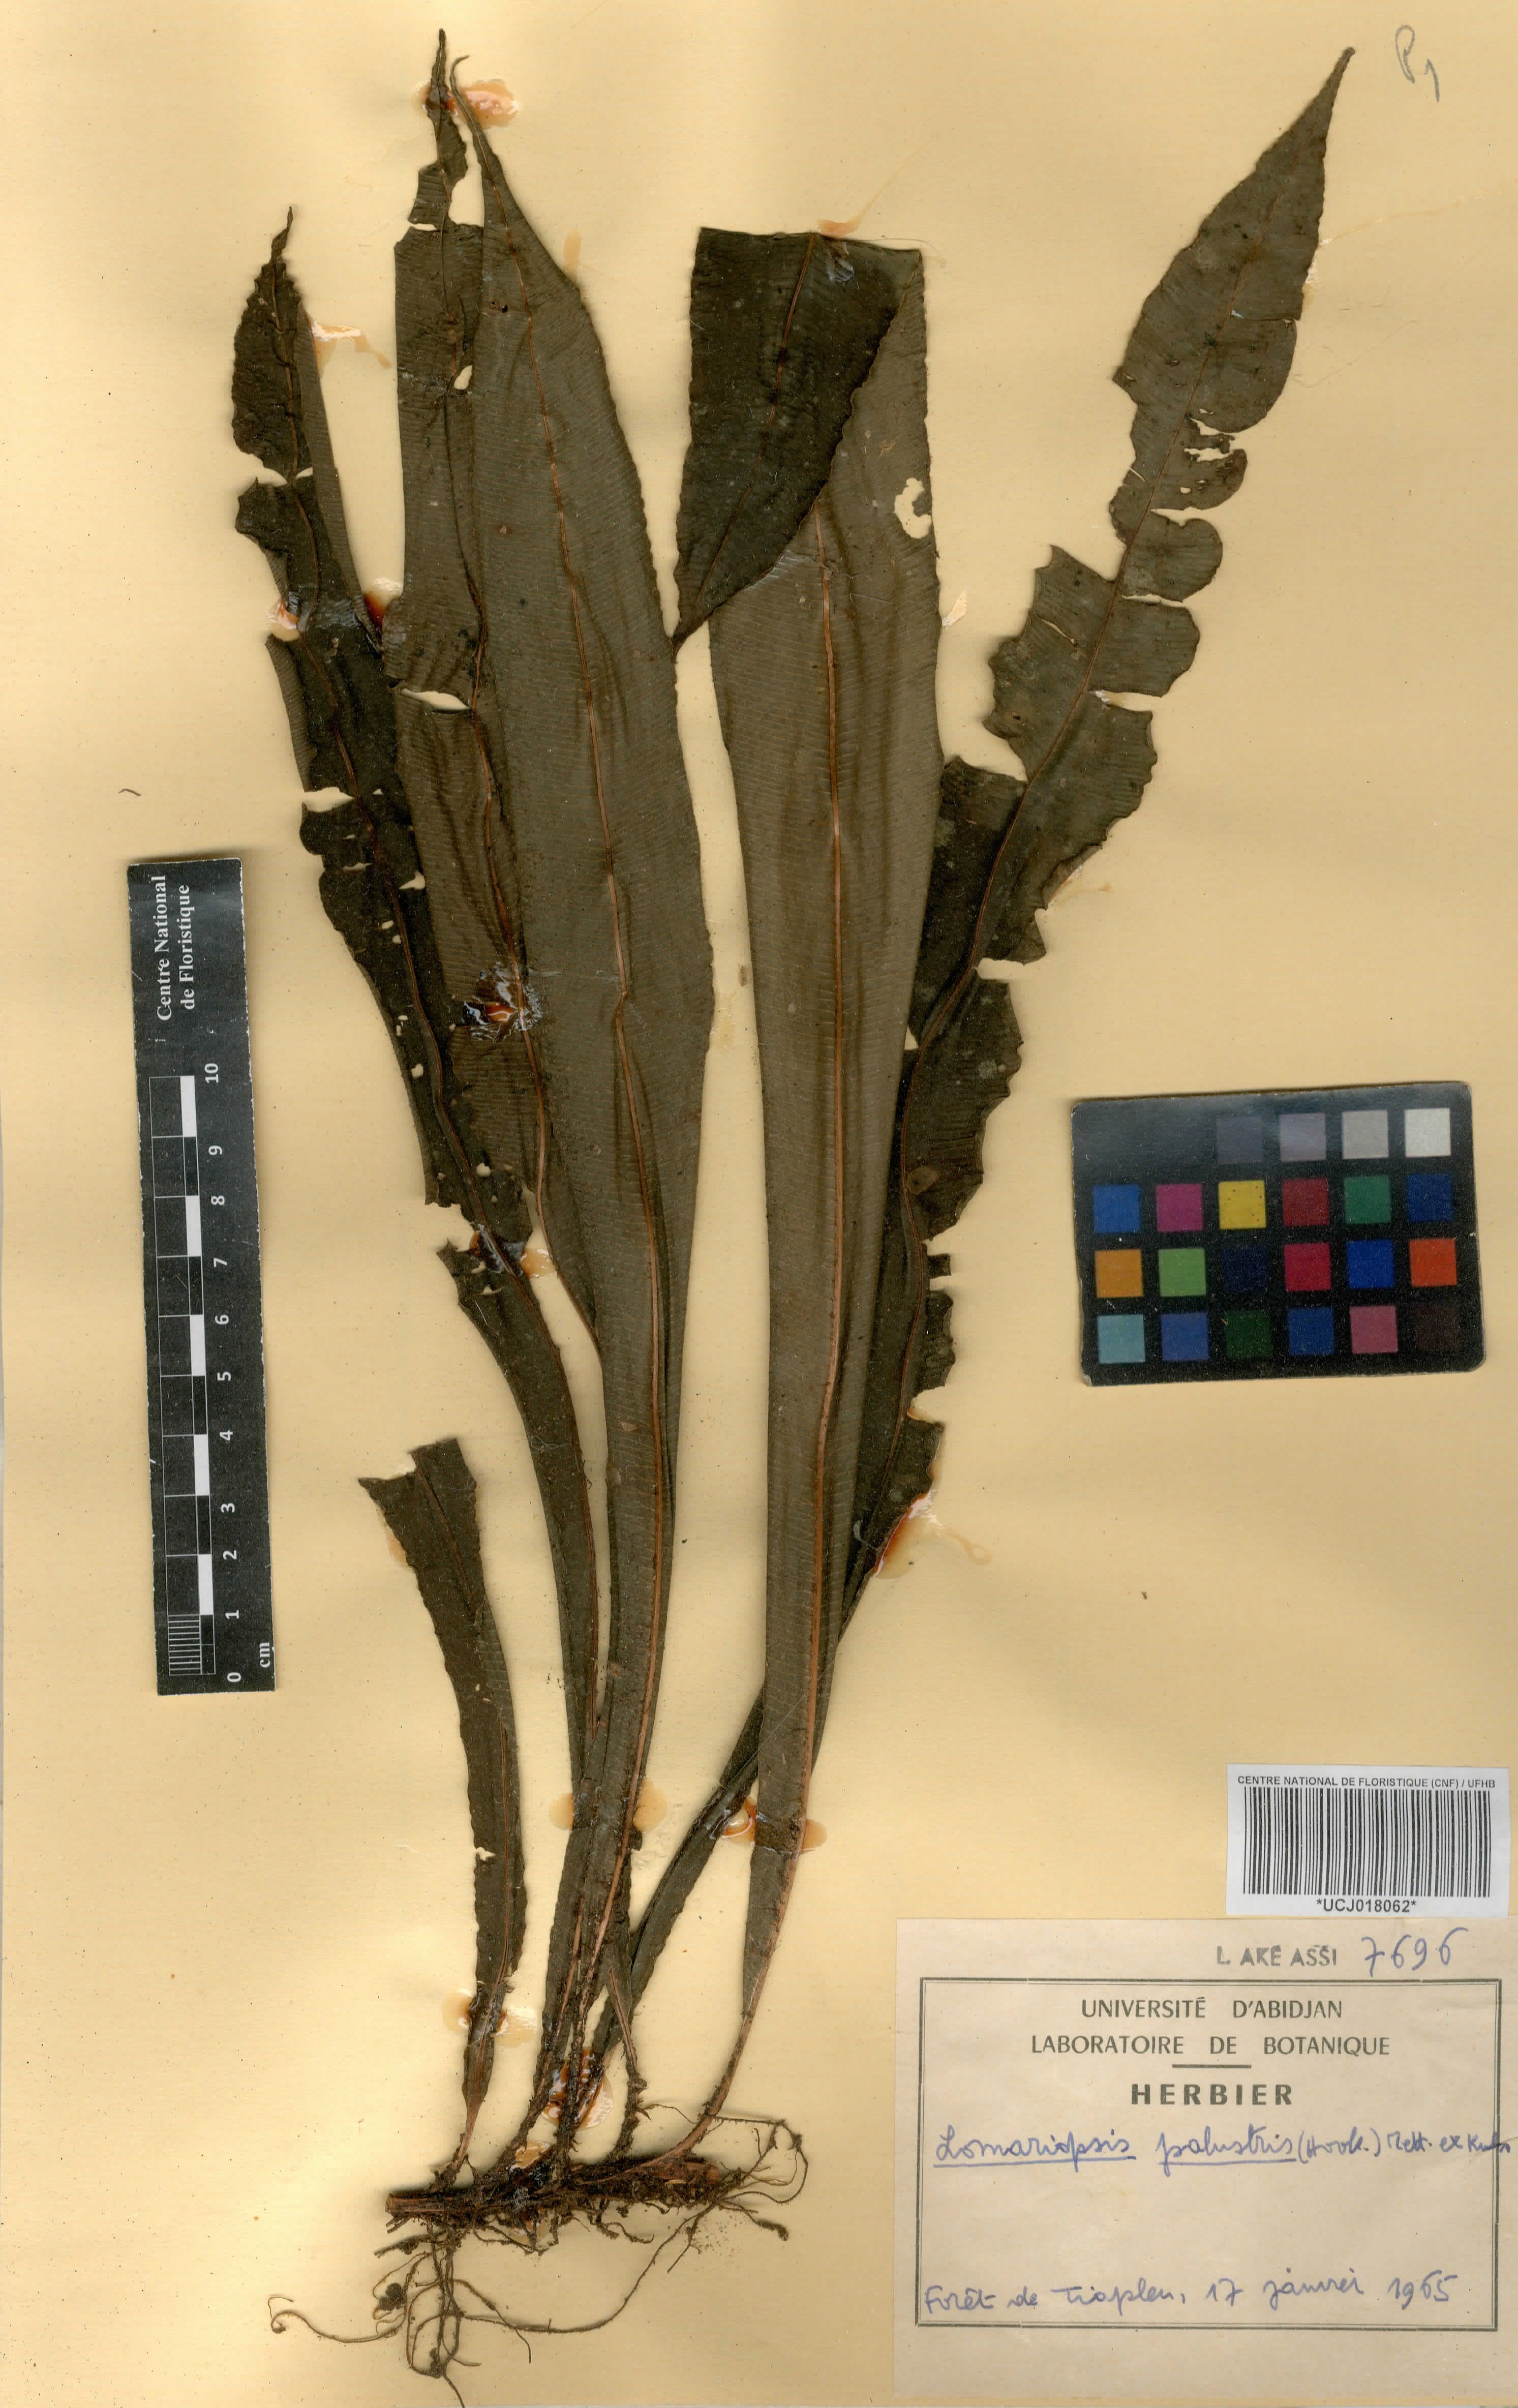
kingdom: Plantae
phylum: Tracheophyta
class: Polypodiopsida
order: Polypodiales
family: Blechnaceae
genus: Stenochlaena
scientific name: Stenochlaena palustris
